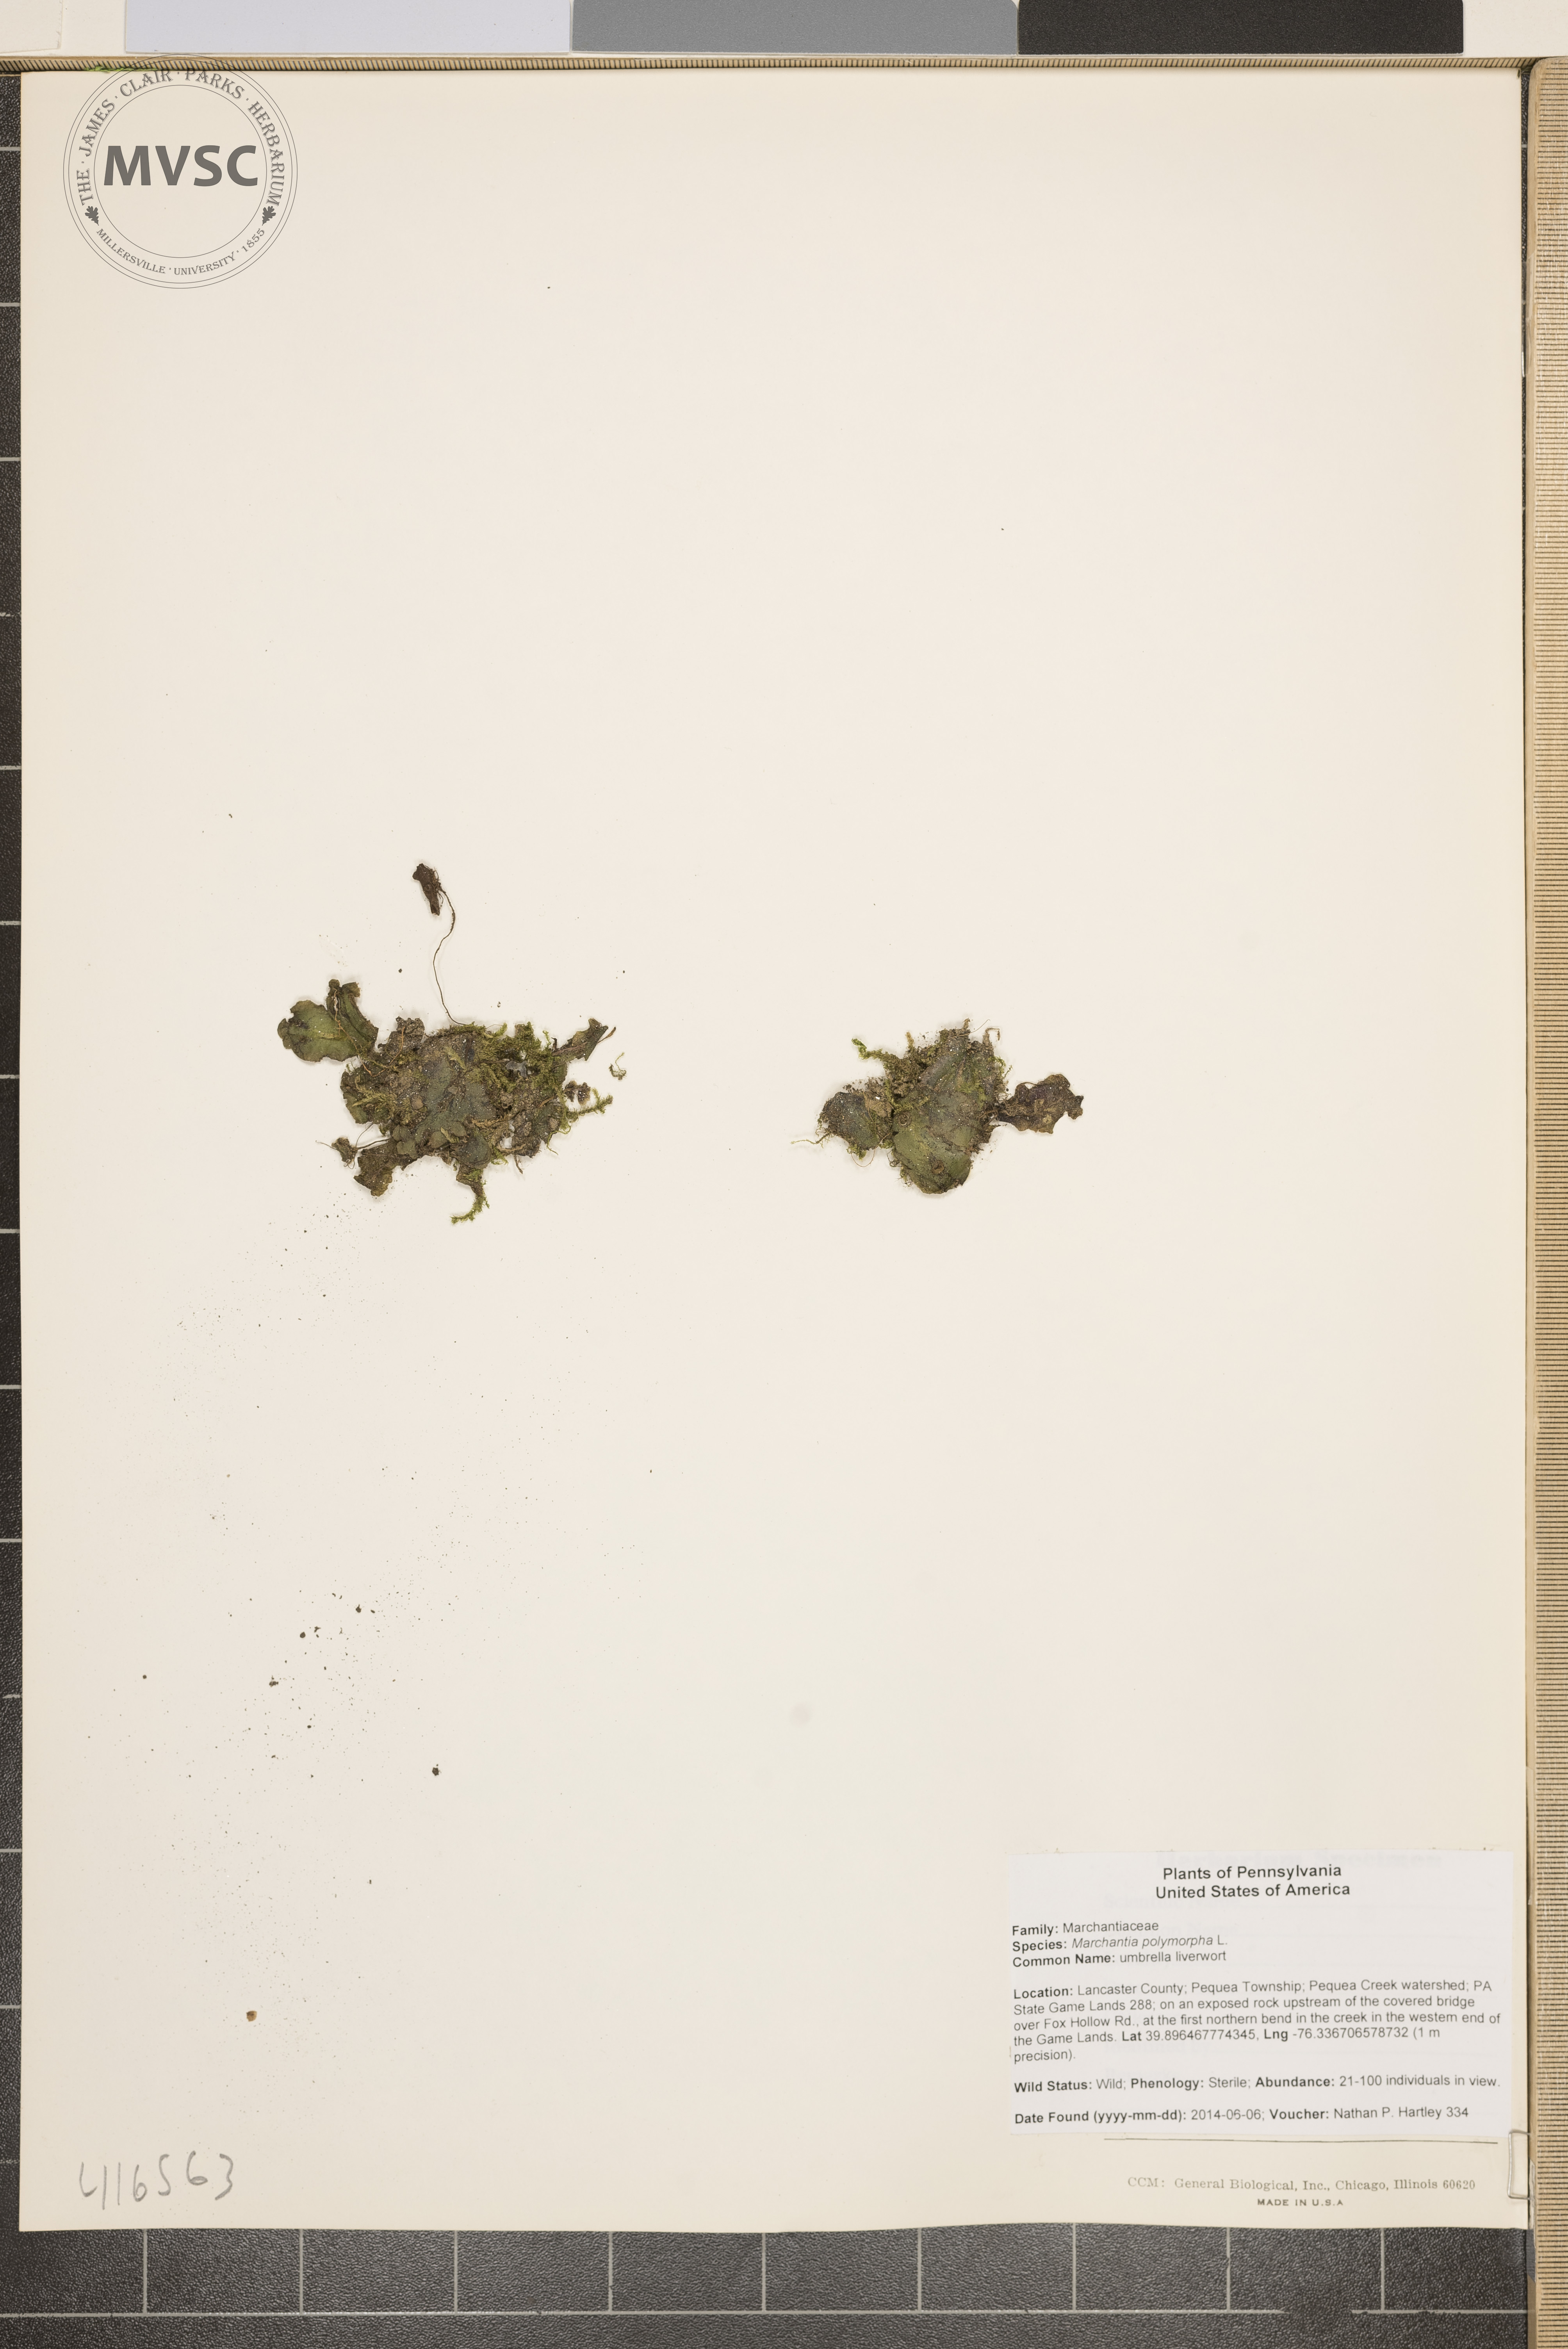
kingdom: Plantae
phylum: Marchantiophyta
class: Marchantiopsida
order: Marchantiales
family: Marchantiaceae
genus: Marchantia
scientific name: Marchantia polymorpha
